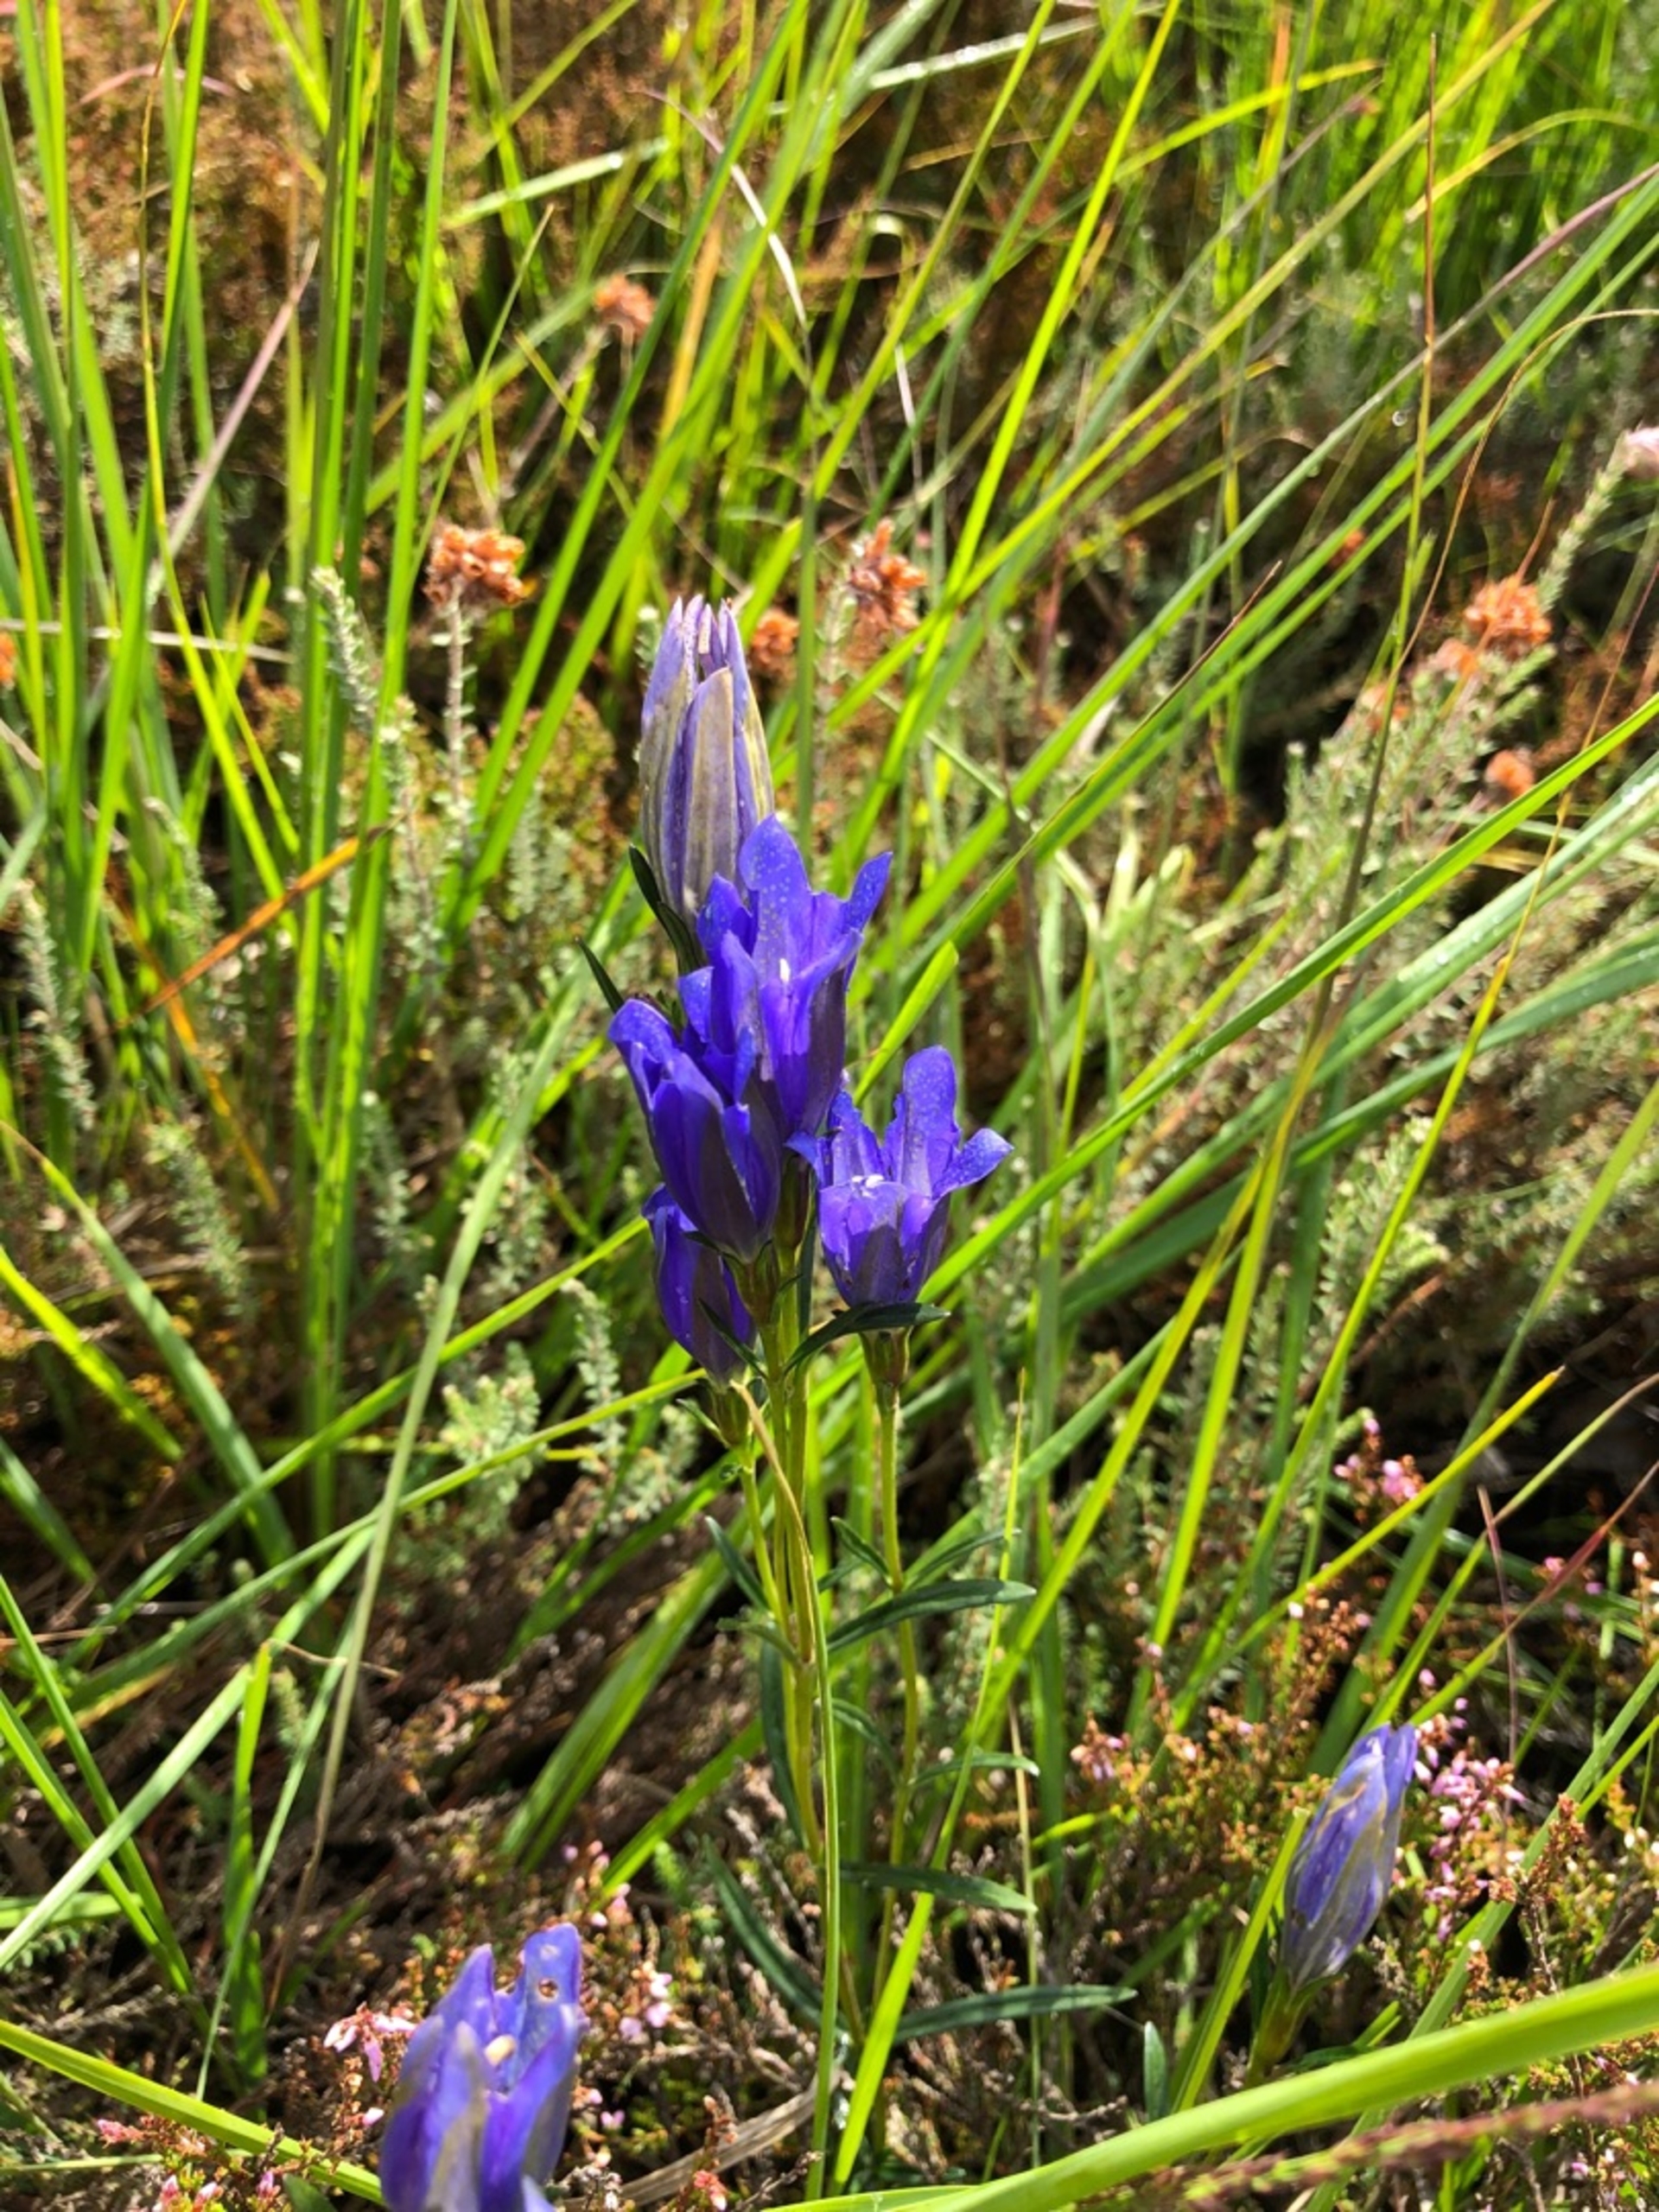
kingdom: Plantae
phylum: Tracheophyta
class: Magnoliopsida
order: Gentianales
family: Gentianaceae
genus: Gentiana
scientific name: Gentiana pneumonanthe
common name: Klokke-ensian
